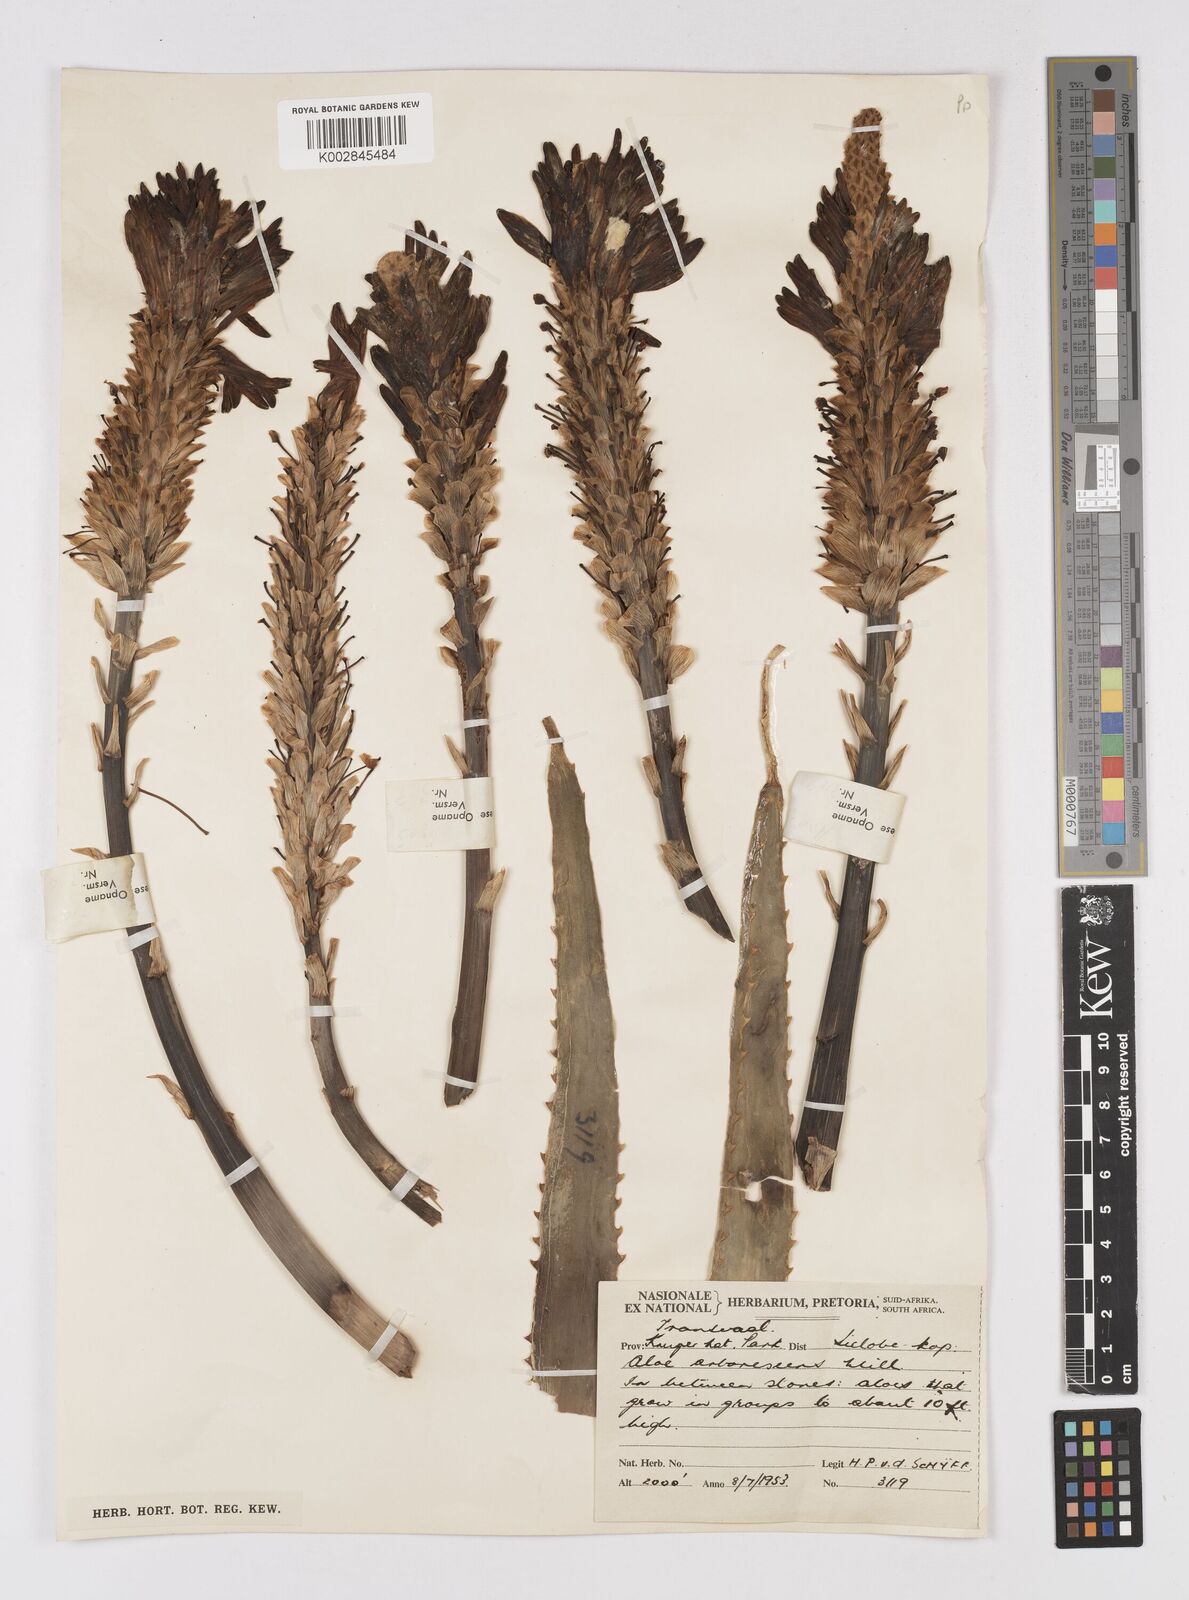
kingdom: Plantae
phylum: Tracheophyta
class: Liliopsida
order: Asparagales
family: Asphodelaceae
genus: Aloe
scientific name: Aloe arborescens
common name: Candelabra aloe
